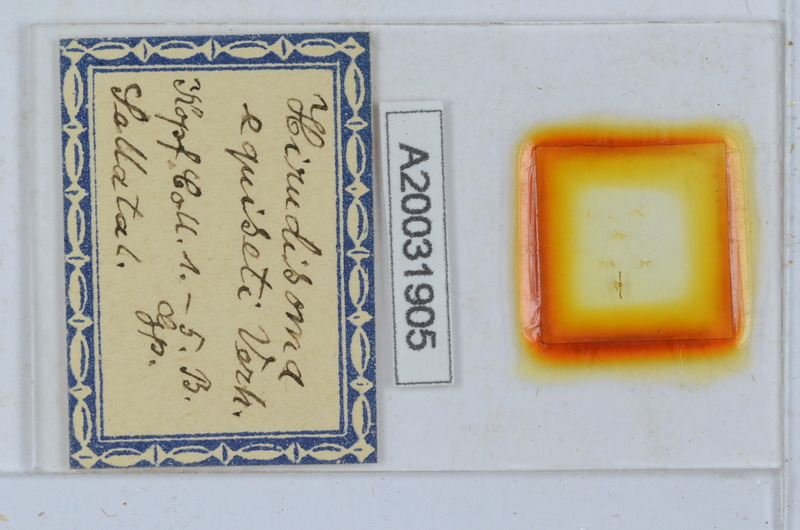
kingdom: Animalia
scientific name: Animalia
